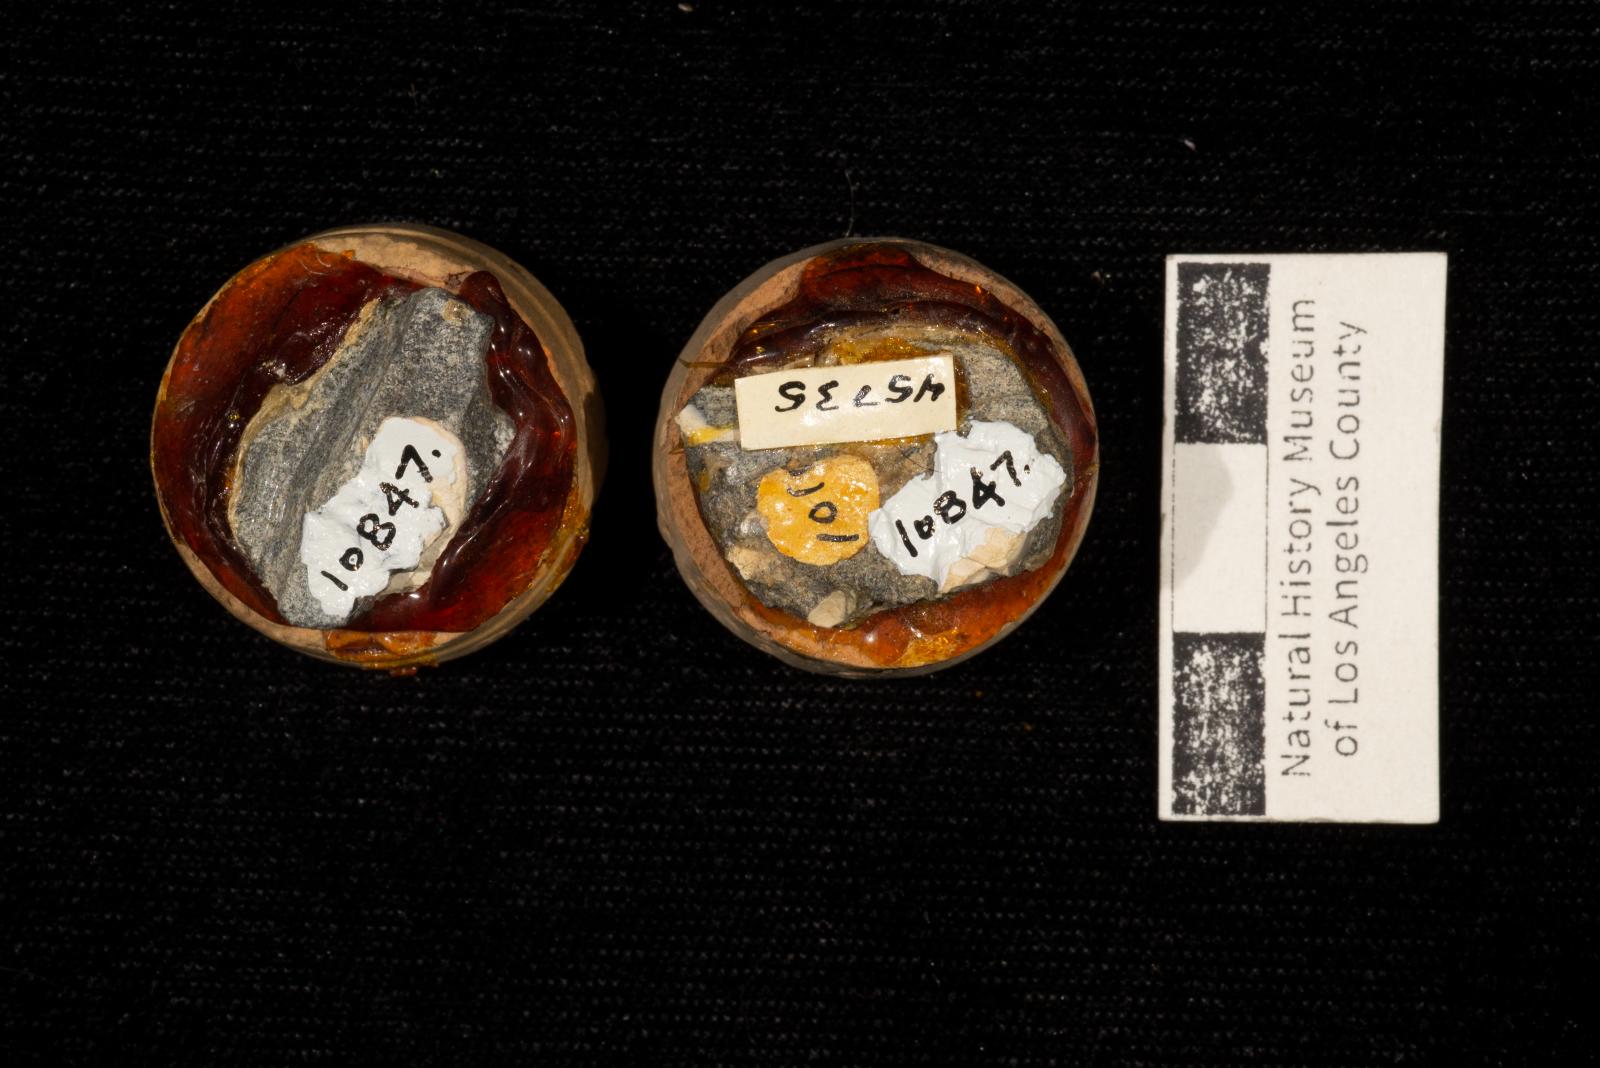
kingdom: Animalia
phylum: Mollusca
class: Bivalvia
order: Cardiida
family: Tancrediidae
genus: Meekia
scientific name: Meekia mygale
